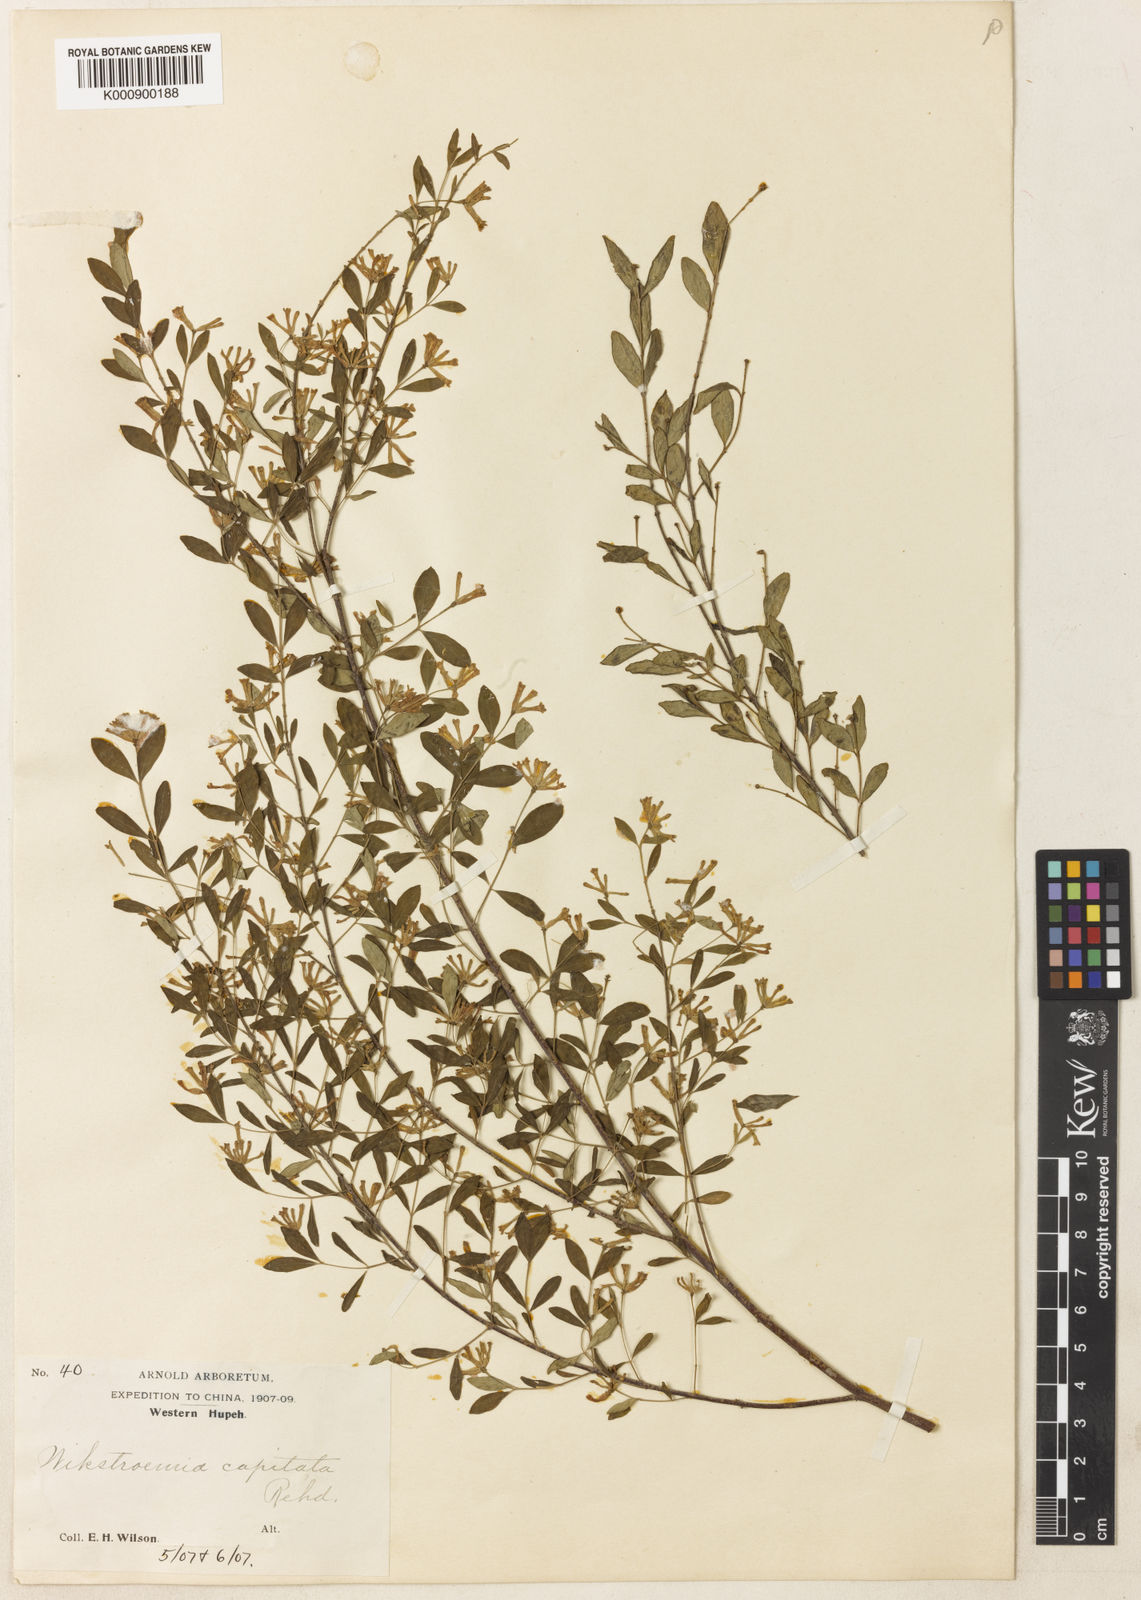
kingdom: Plantae
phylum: Tracheophyta
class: Magnoliopsida
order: Malvales
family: Thymelaeaceae
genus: Wikstroemia
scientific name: Wikstroemia capitata
